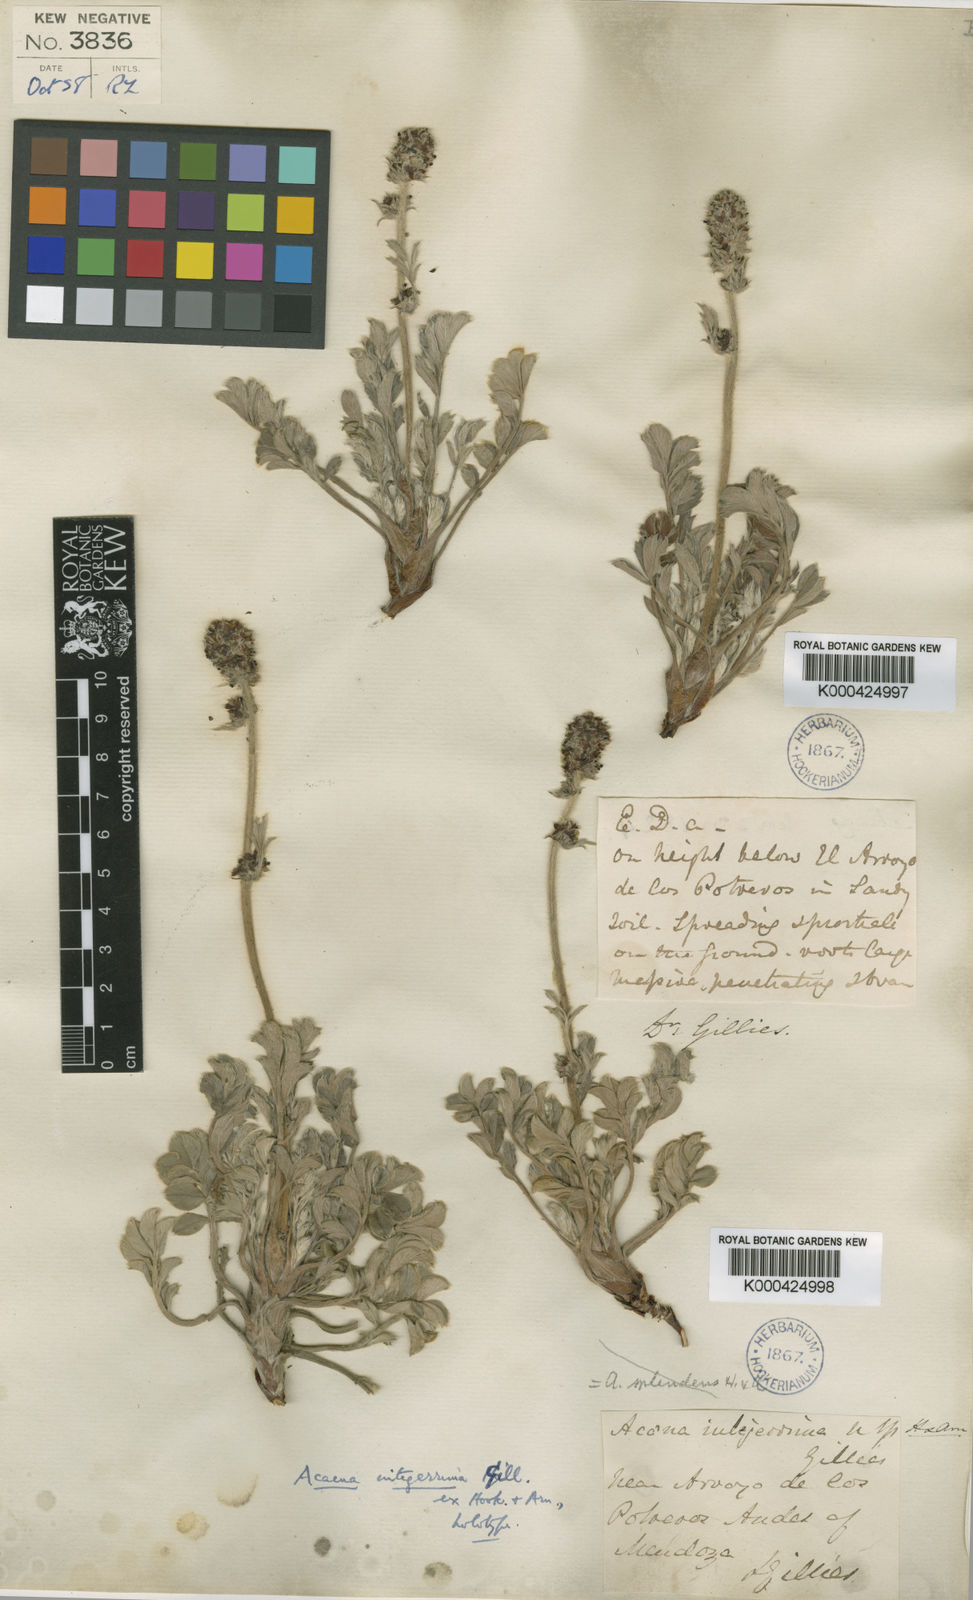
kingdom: Plantae
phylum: Tracheophyta
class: Magnoliopsida
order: Rosales
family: Rosaceae
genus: Acaena
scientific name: Acaena
